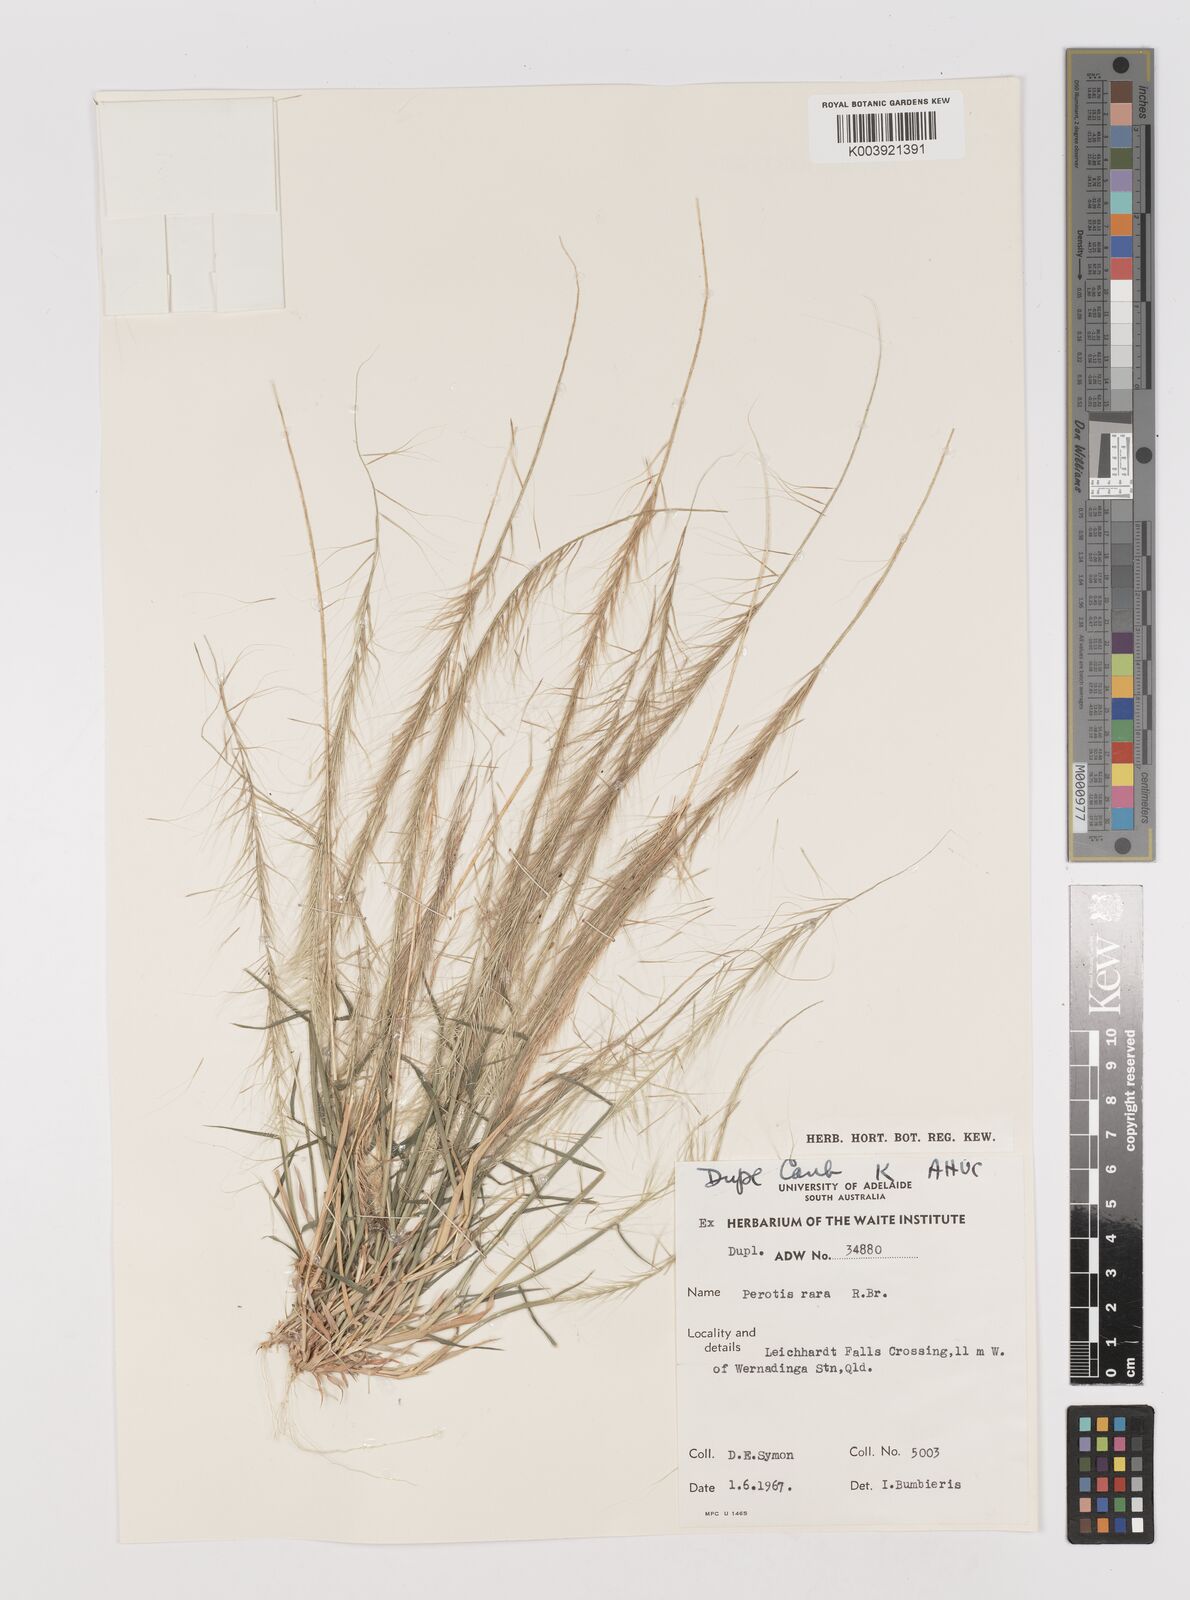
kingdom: Plantae
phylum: Tracheophyta
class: Liliopsida
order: Poales
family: Poaceae
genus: Perotis
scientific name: Perotis rara
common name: Comet grass
